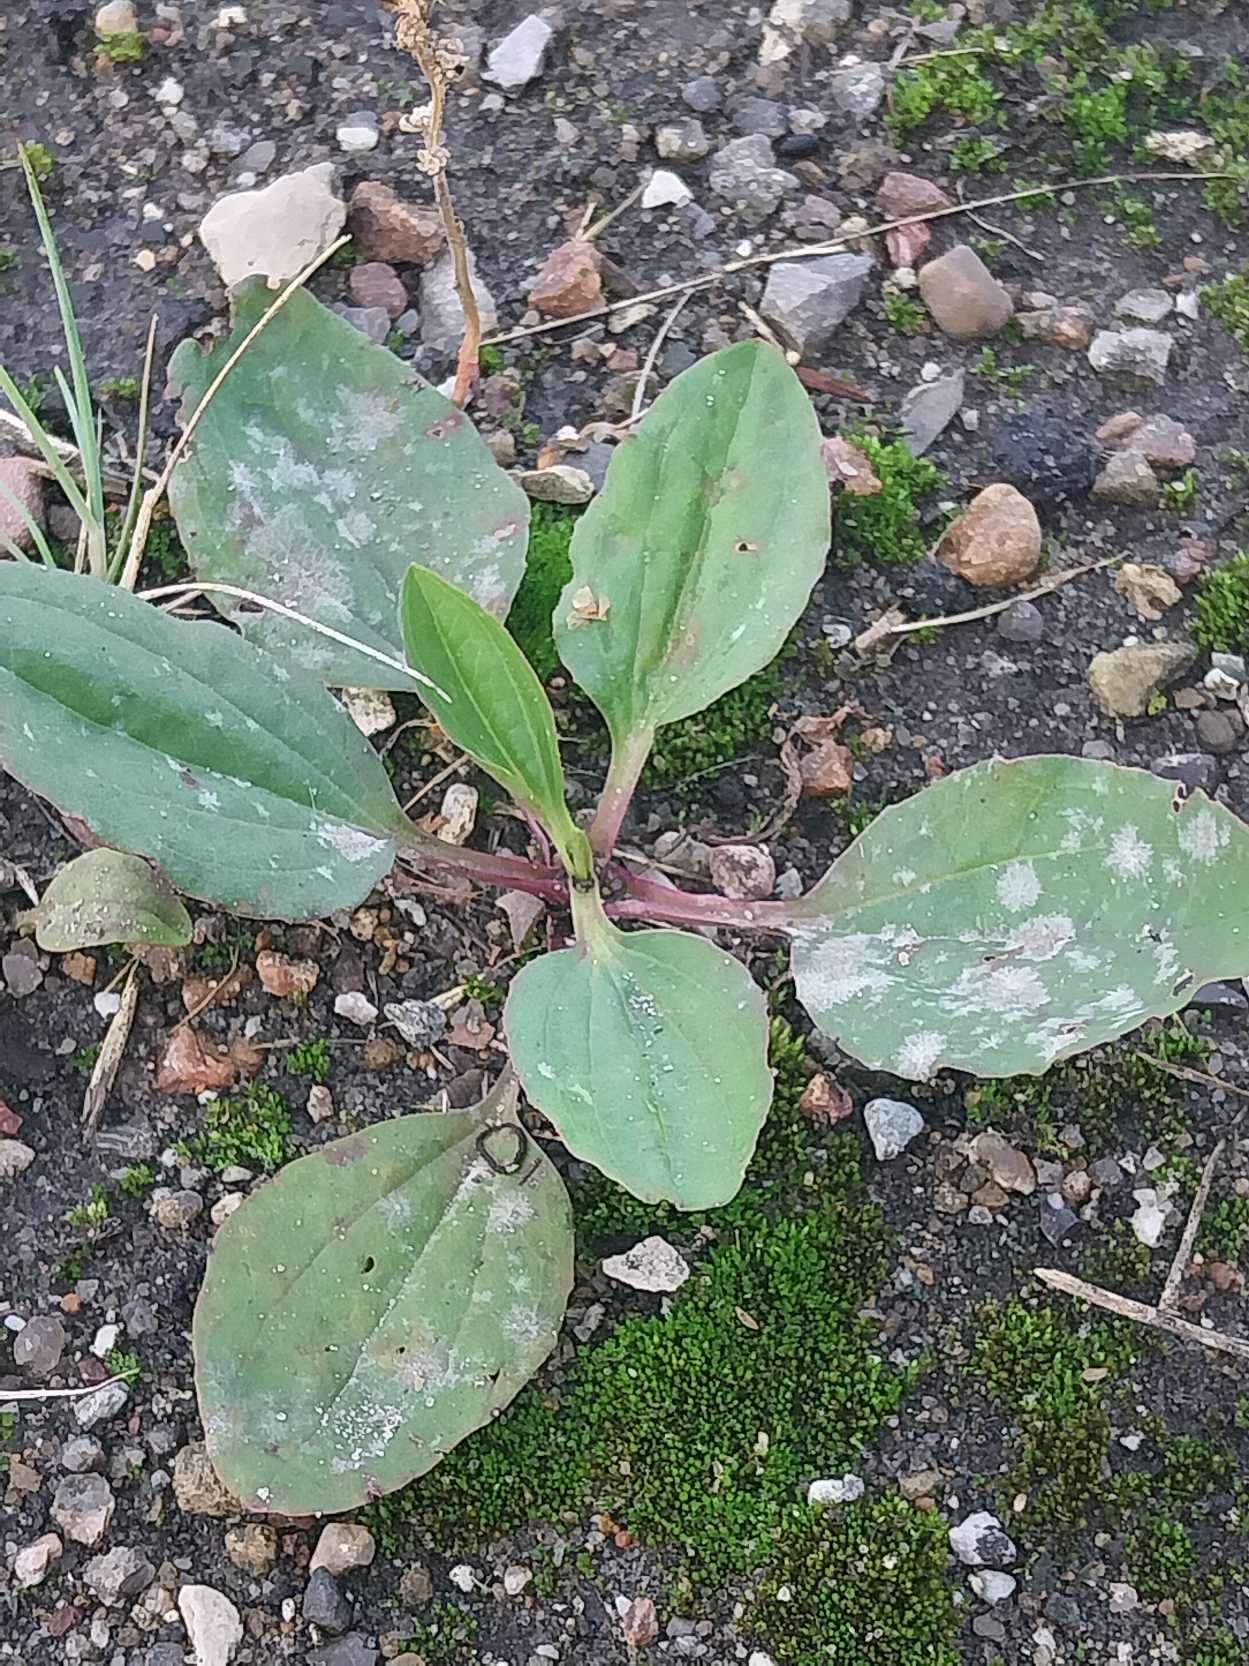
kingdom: Plantae
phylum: Tracheophyta
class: Magnoliopsida
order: Lamiales
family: Plantaginaceae
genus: Plantago
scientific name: Plantago major
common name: Glat vejbred
